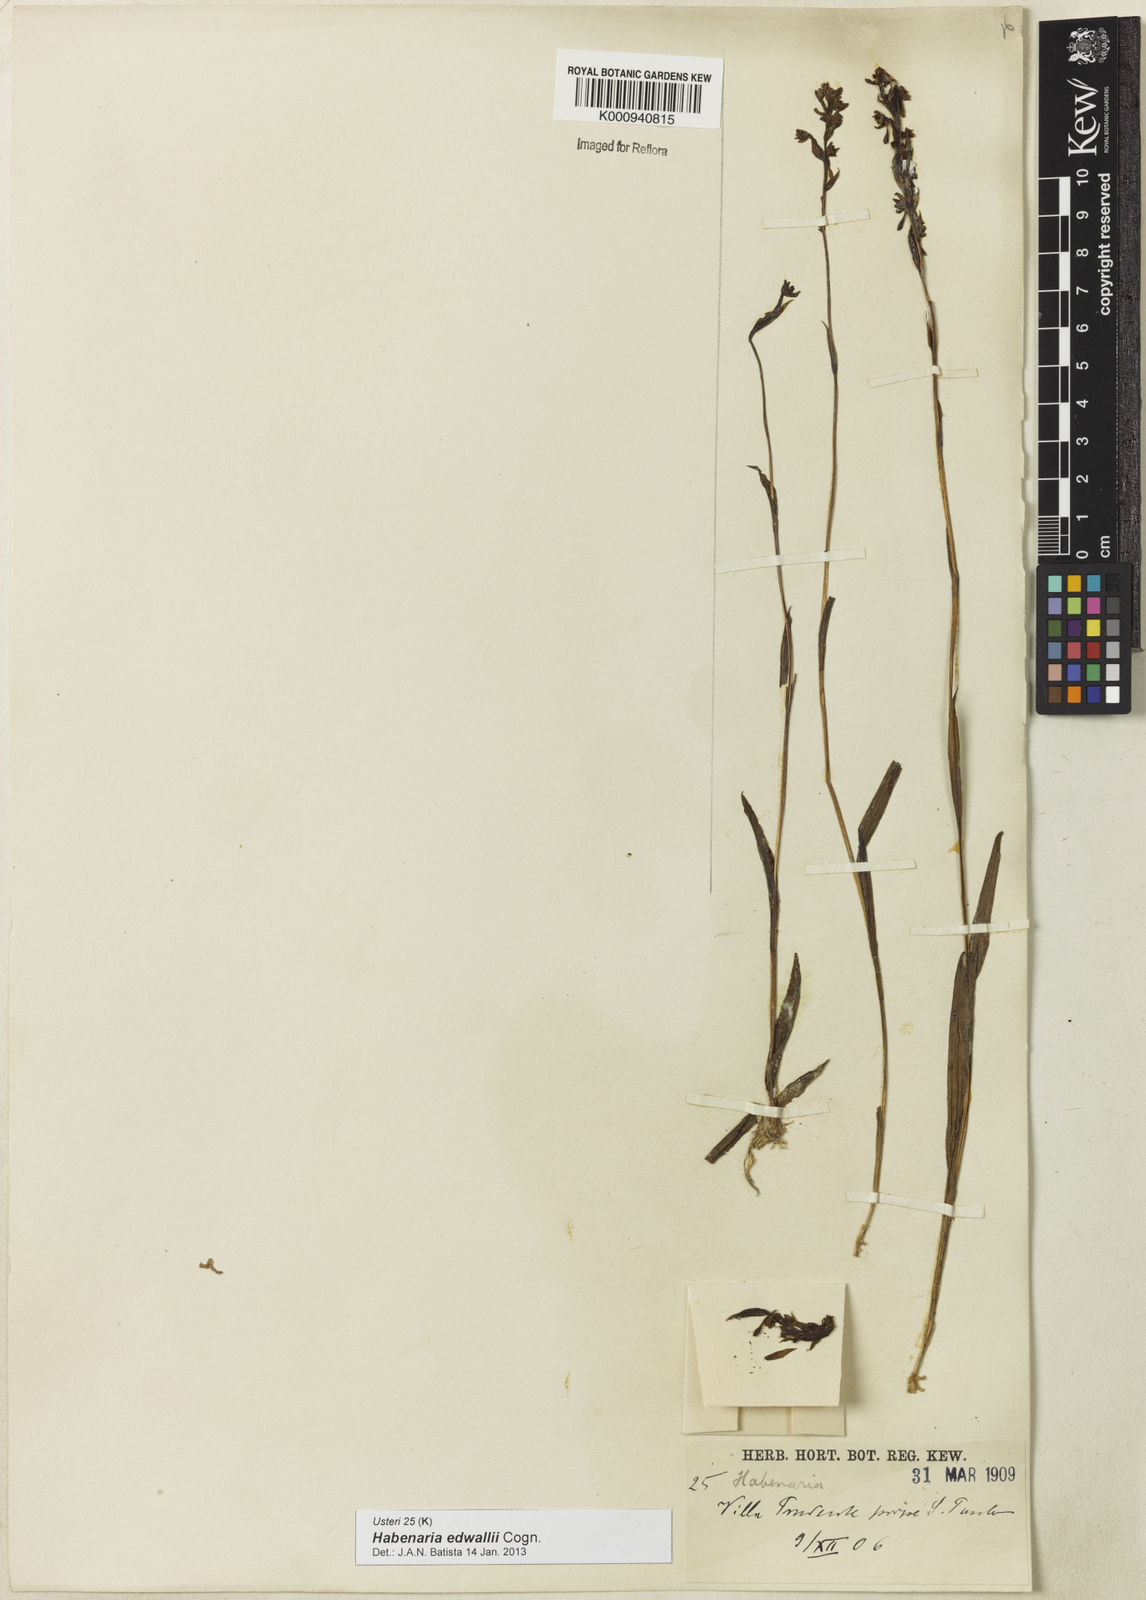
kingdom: Plantae
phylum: Tracheophyta
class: Liliopsida
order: Asparagales
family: Orchidaceae
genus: Habenaria
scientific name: Habenaria edwallii
